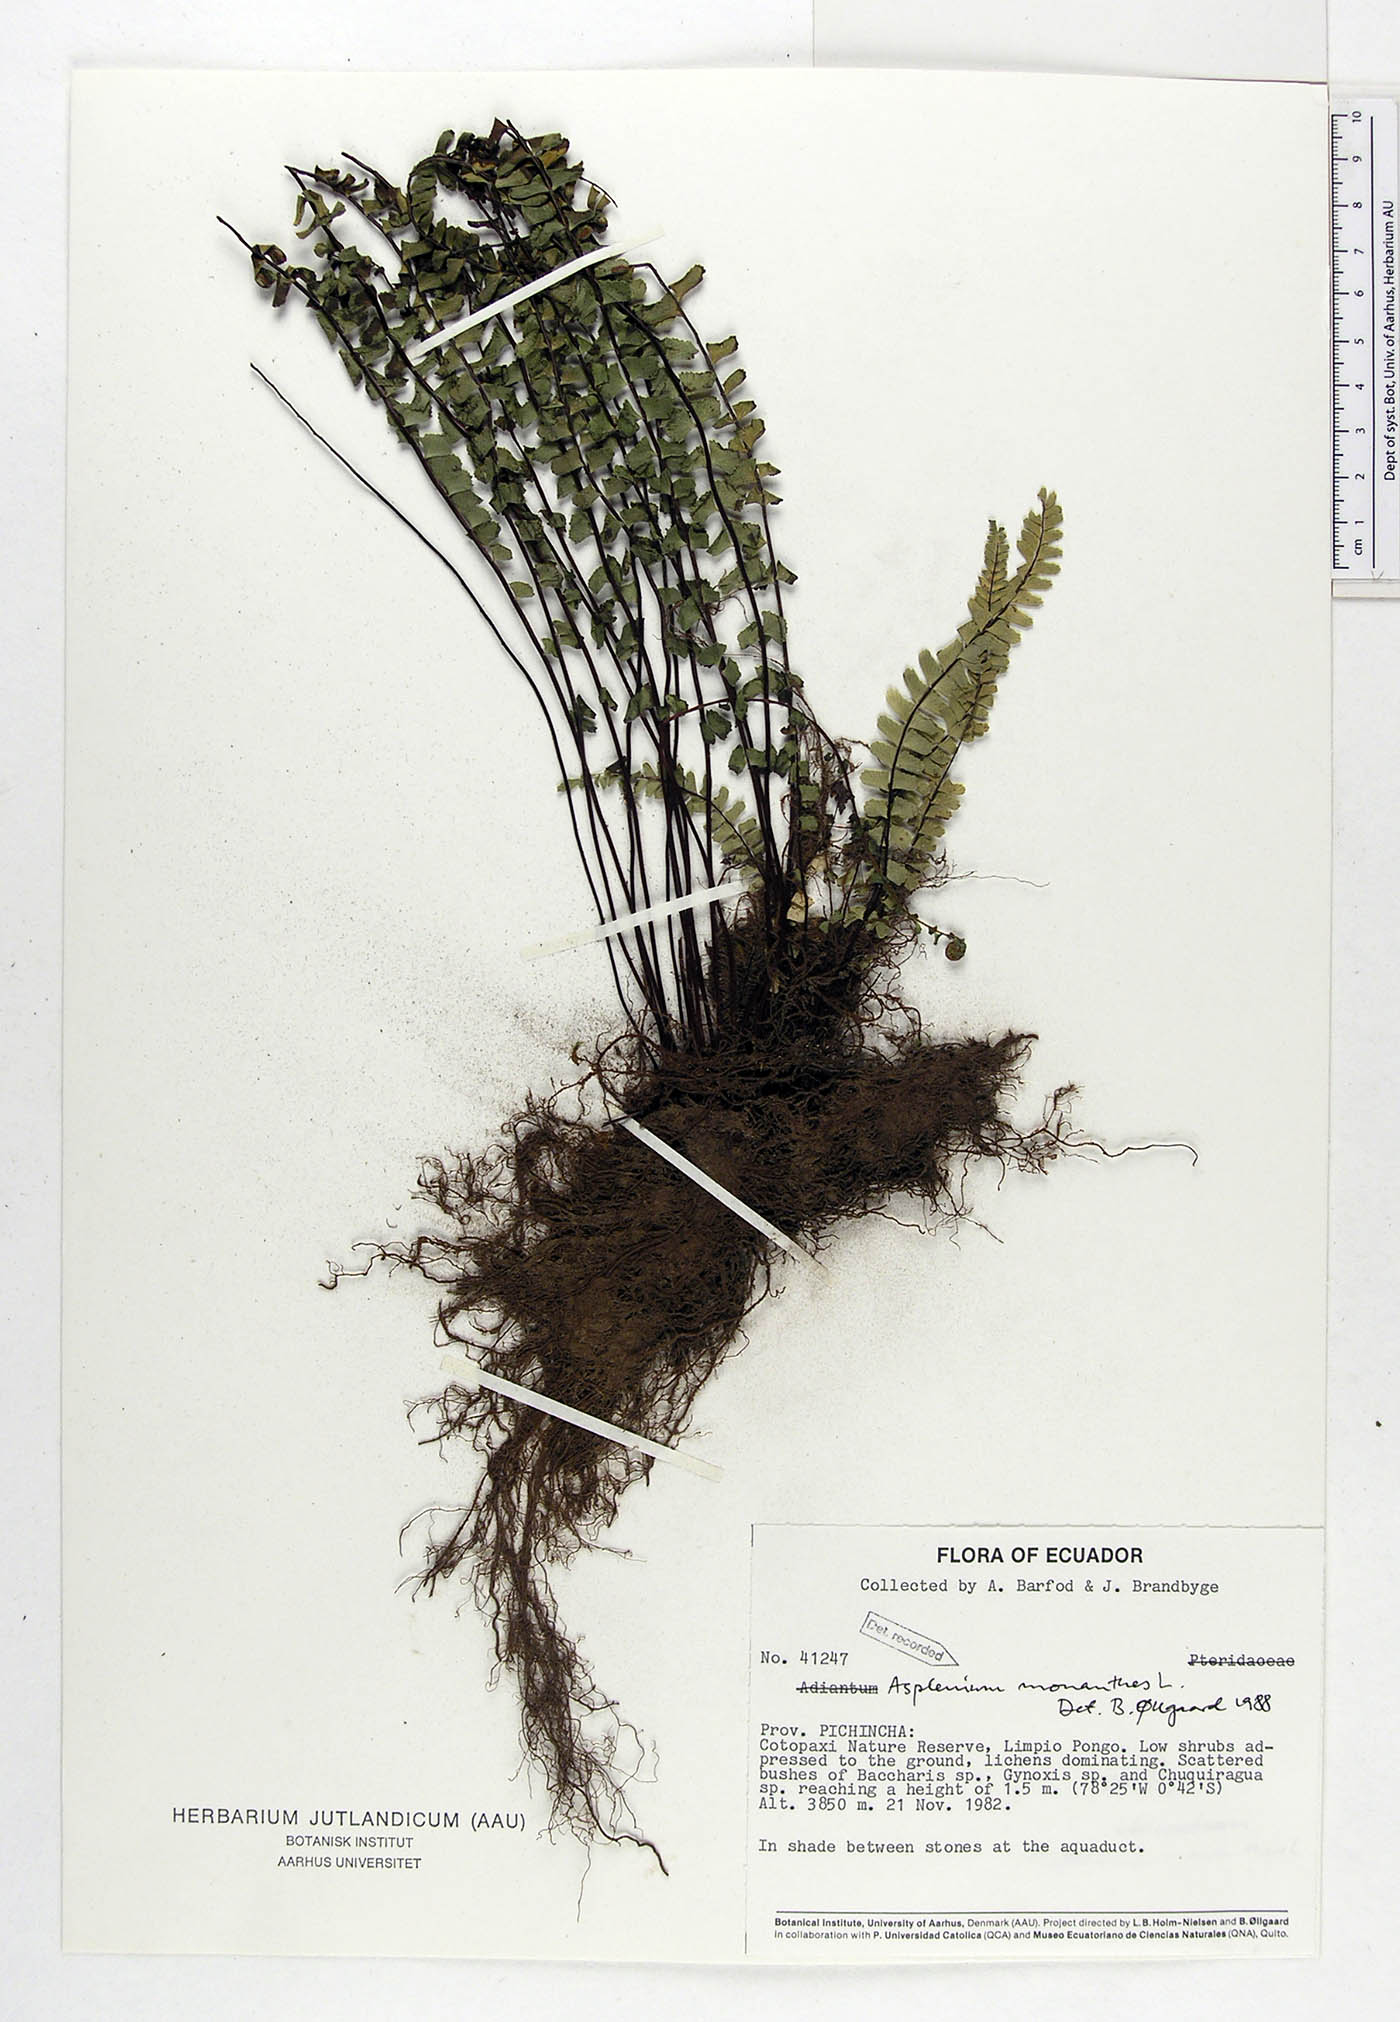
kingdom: Plantae
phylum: Tracheophyta
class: Polypodiopsida
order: Polypodiales
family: Aspleniaceae
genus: Asplenium
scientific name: Asplenium monanthes
